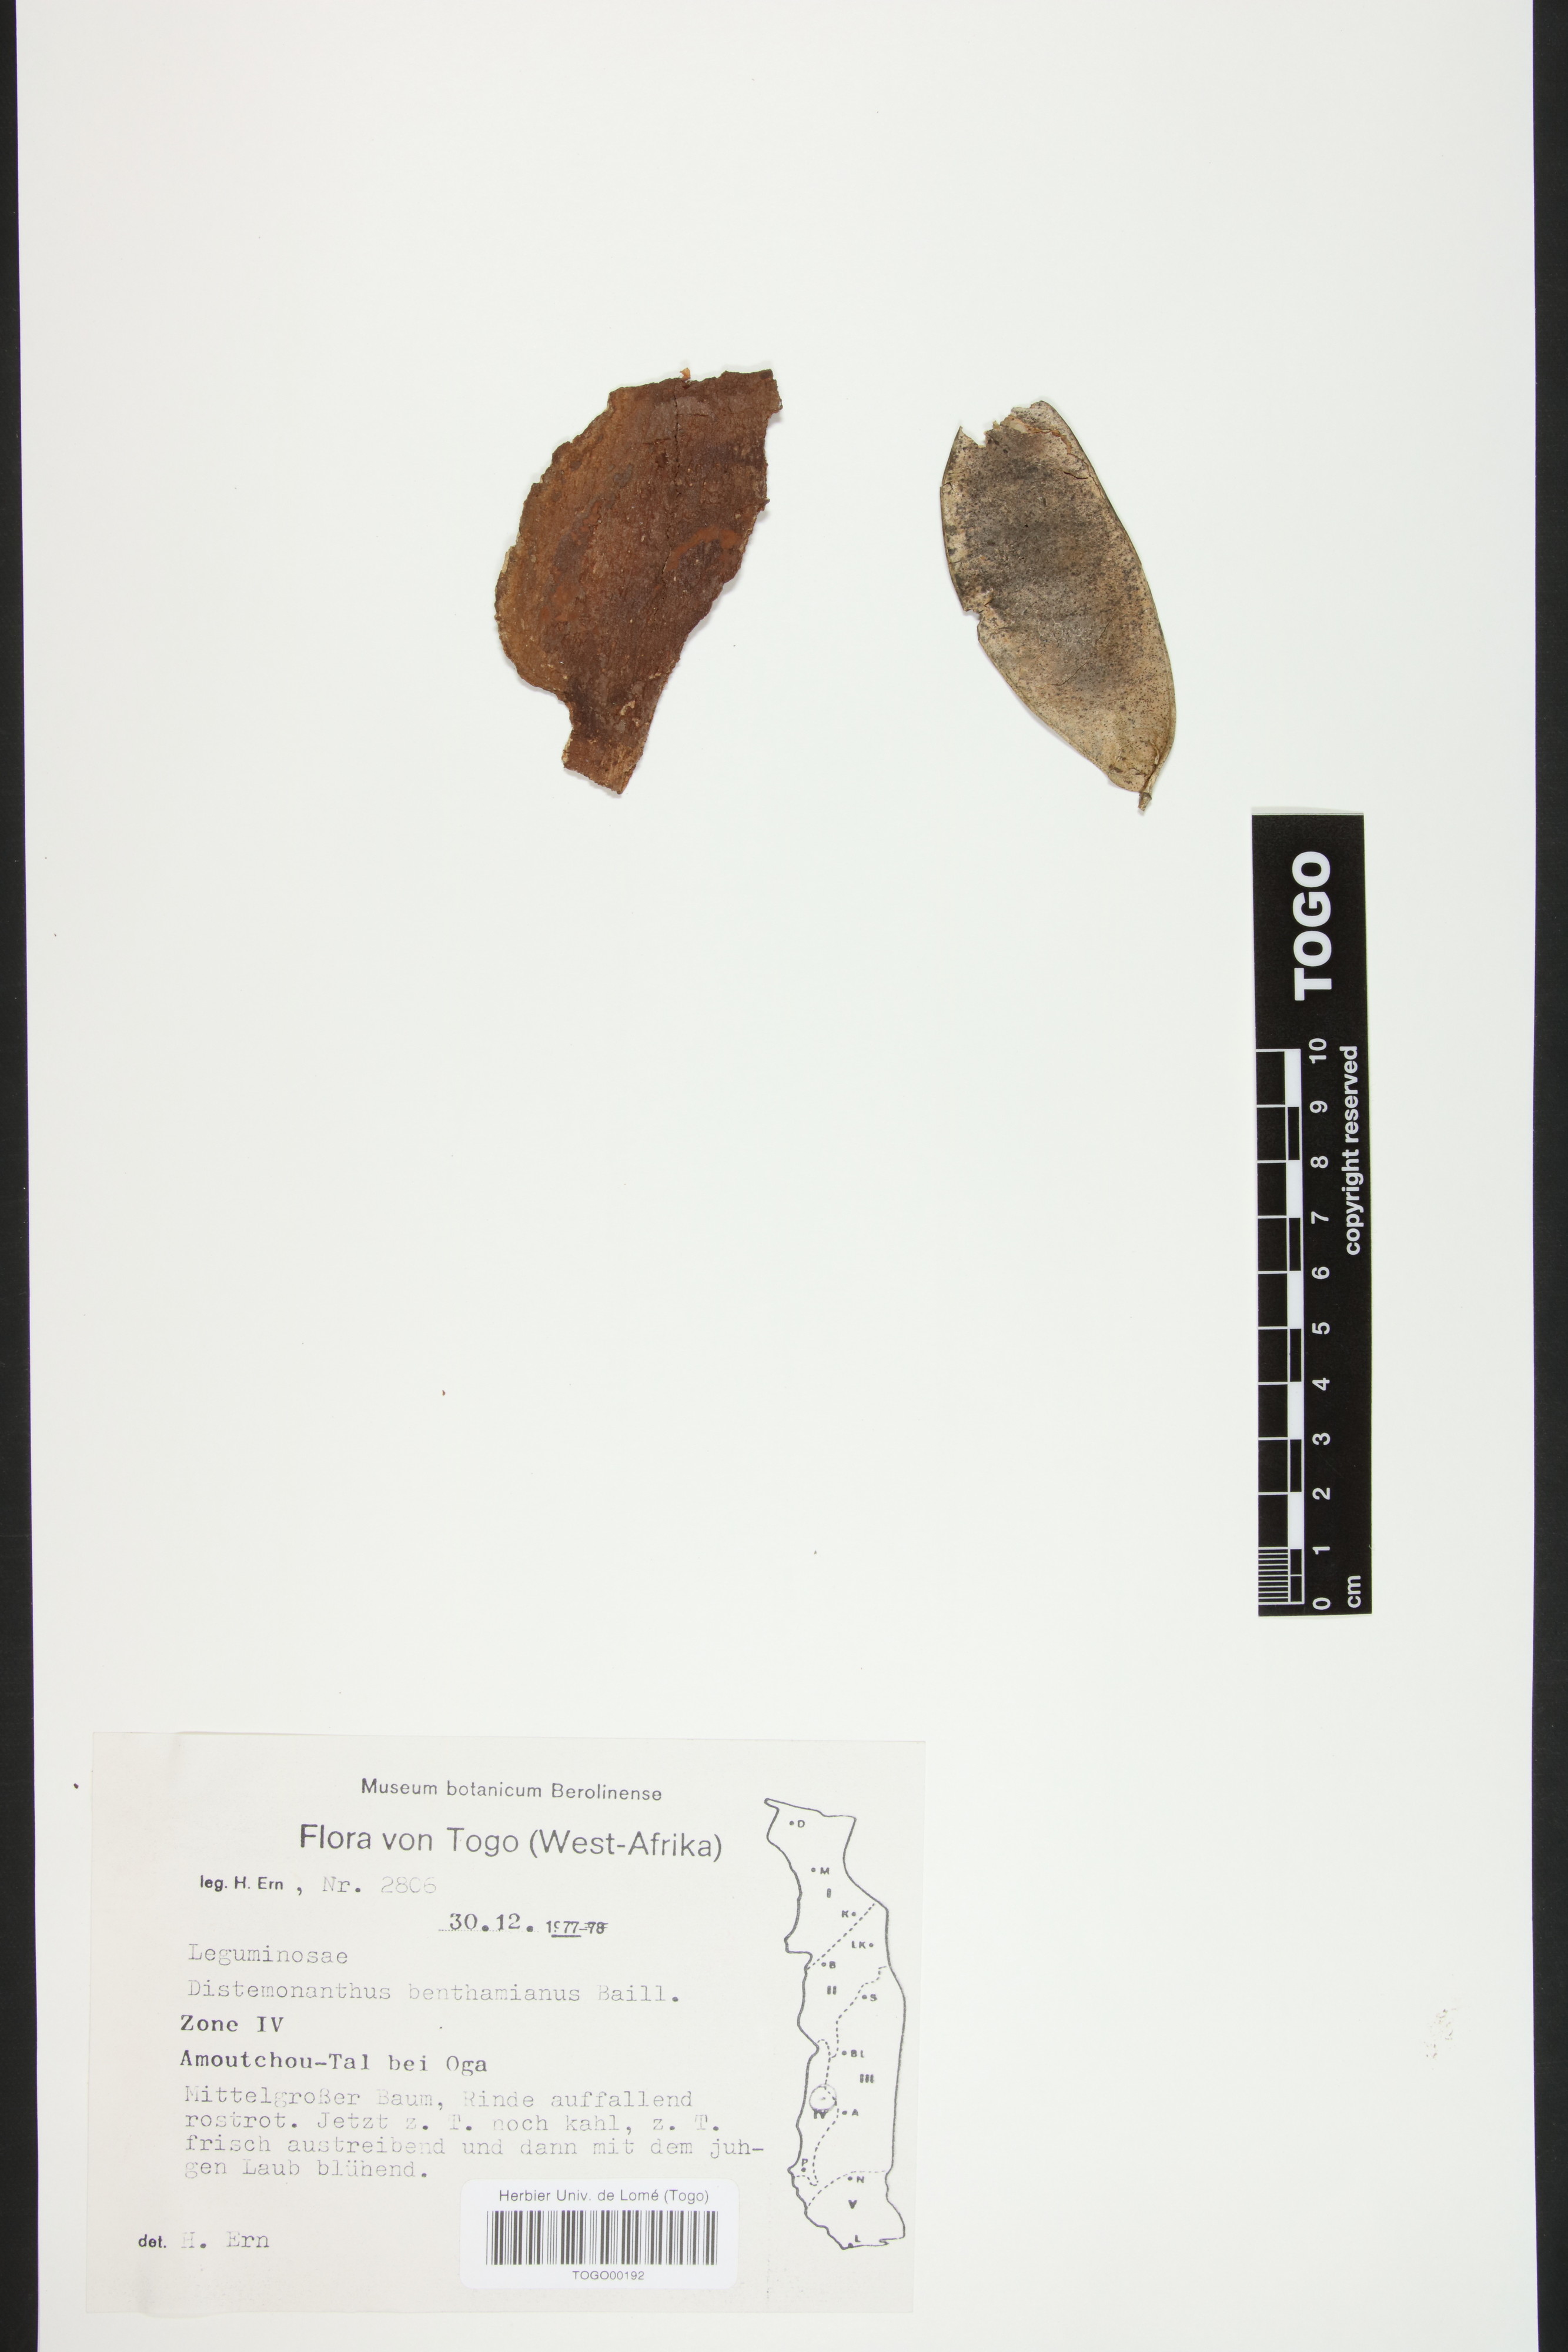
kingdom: Plantae
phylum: Tracheophyta
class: Magnoliopsida
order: Fabales
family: Fabaceae
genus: Distemonanthus
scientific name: Distemonanthus benthamianus
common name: Yellow satinwood
